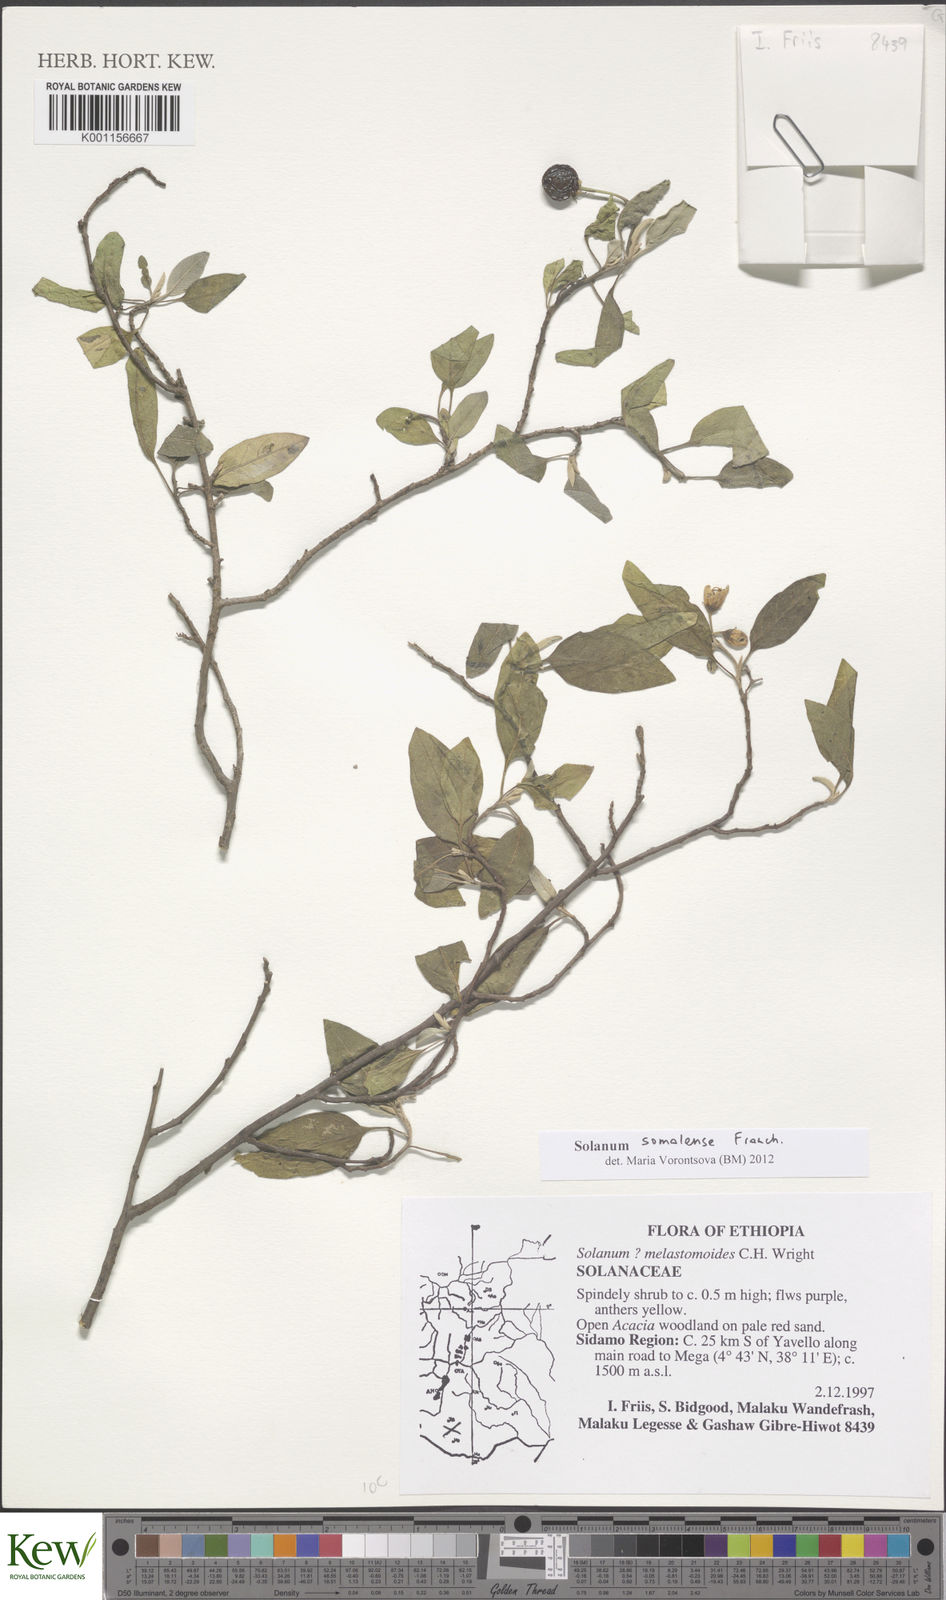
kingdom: Plantae
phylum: Tracheophyta
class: Magnoliopsida
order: Solanales
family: Solanaceae
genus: Solanum
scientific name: Solanum somalense
